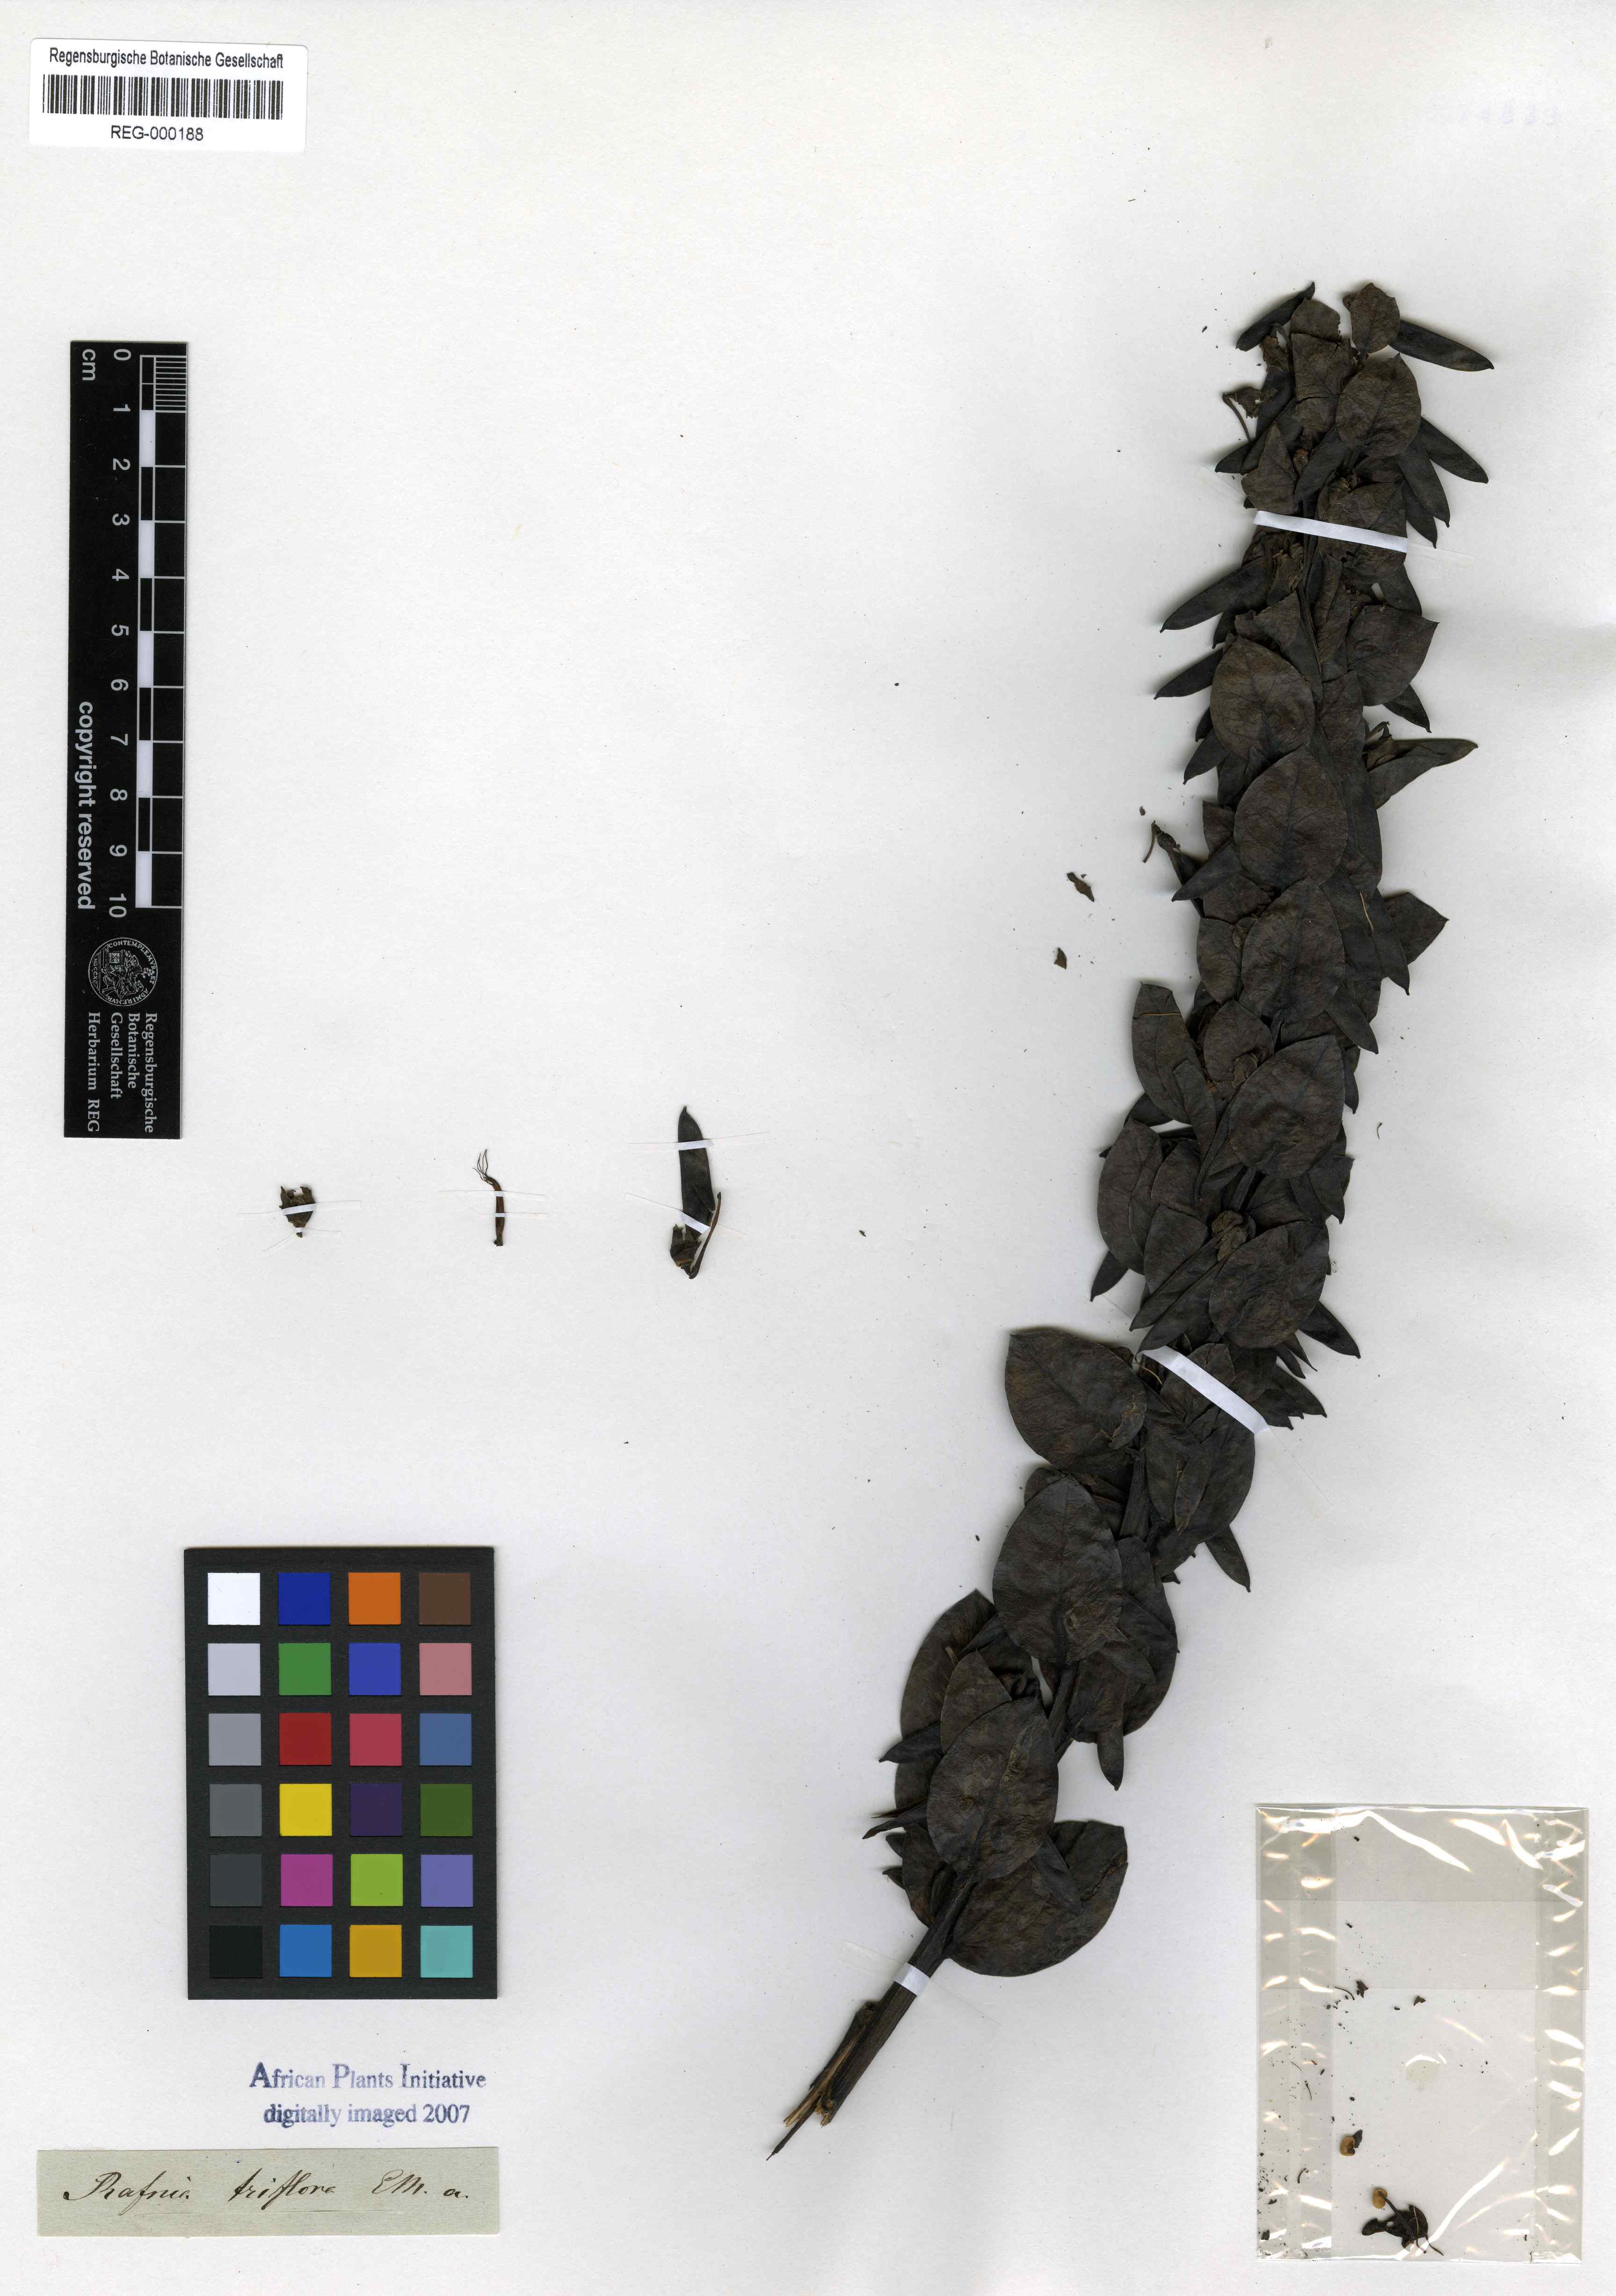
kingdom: Plantae
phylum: Tracheophyta
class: Magnoliopsida
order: Fabales
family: Fabaceae
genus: Rafnia
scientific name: Rafnia triflora
